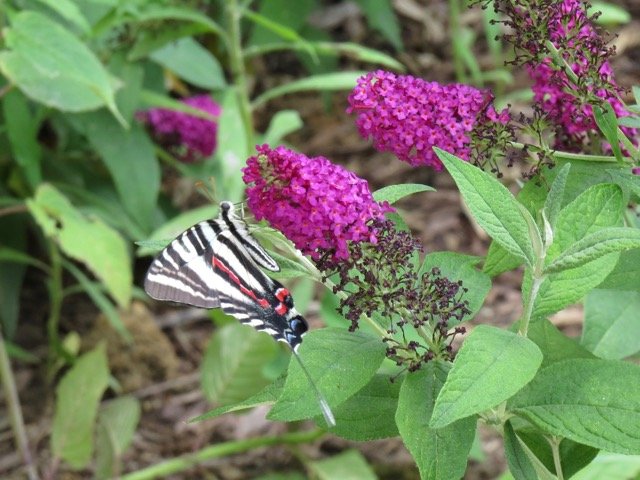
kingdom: Animalia
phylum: Arthropoda
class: Insecta
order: Lepidoptera
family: Papilionidae
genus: Protographium
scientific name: Protographium marcellus
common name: Zebra Swallowtail
